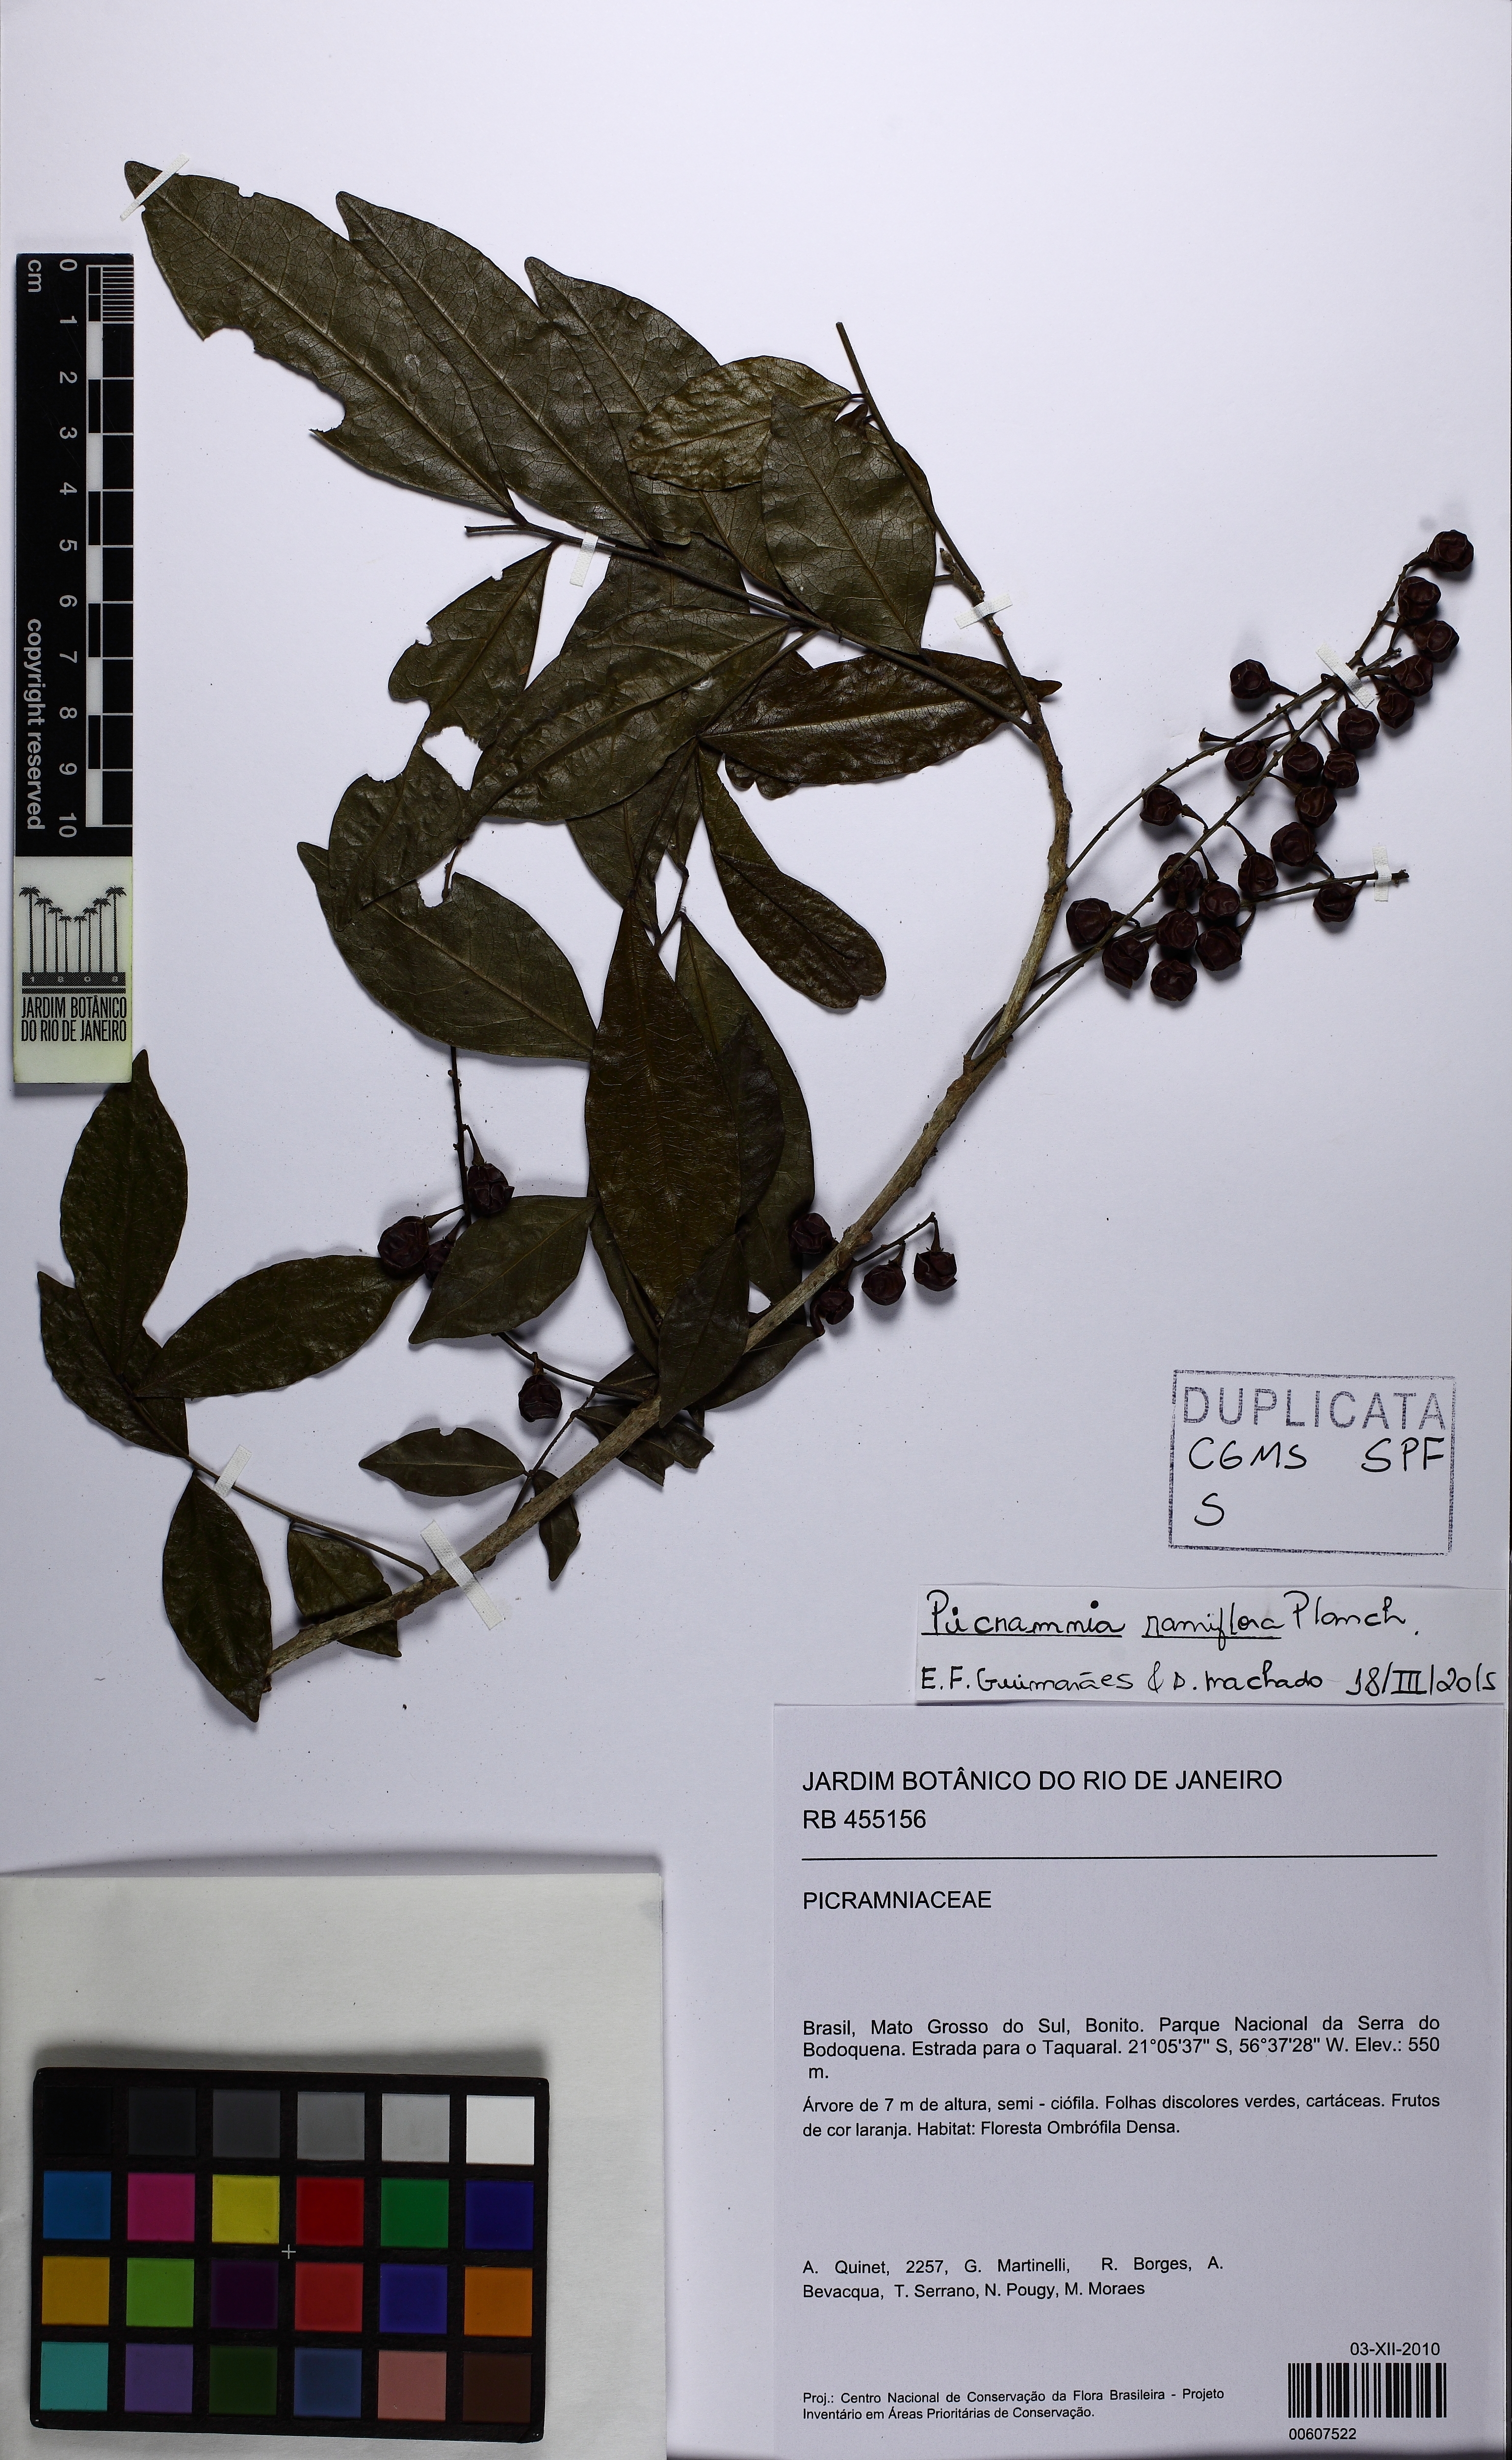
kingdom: Plantae
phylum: Tracheophyta
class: Magnoliopsida
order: Picramniales
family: Picramniaceae
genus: Picramnia
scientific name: Picramnia ramiflora
